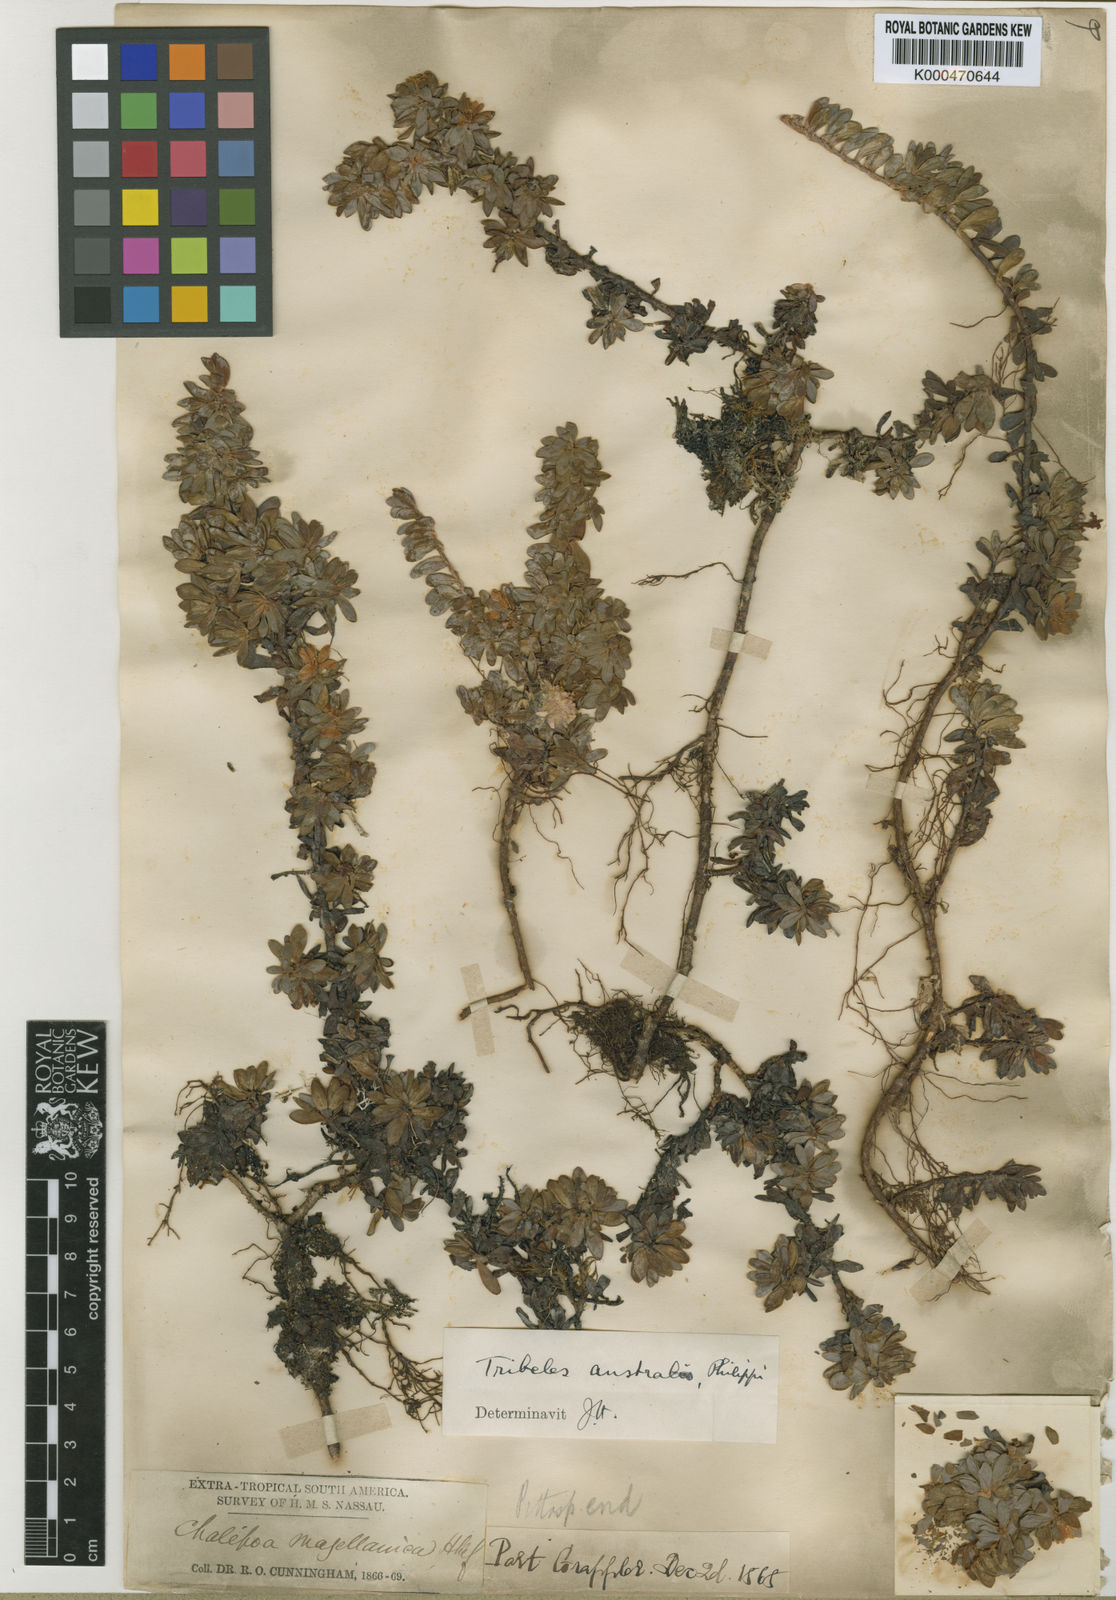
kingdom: Plantae
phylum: Tracheophyta
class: Magnoliopsida
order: Escalloniales
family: Escalloniaceae
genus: Tribeles
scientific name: Tribeles australis
